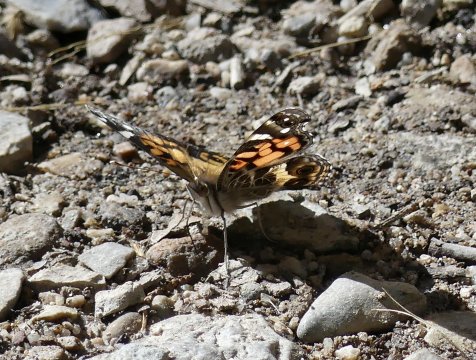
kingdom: Animalia
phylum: Arthropoda
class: Insecta
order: Lepidoptera
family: Nymphalidae
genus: Vanessa
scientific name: Vanessa virginiensis
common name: American Lady
